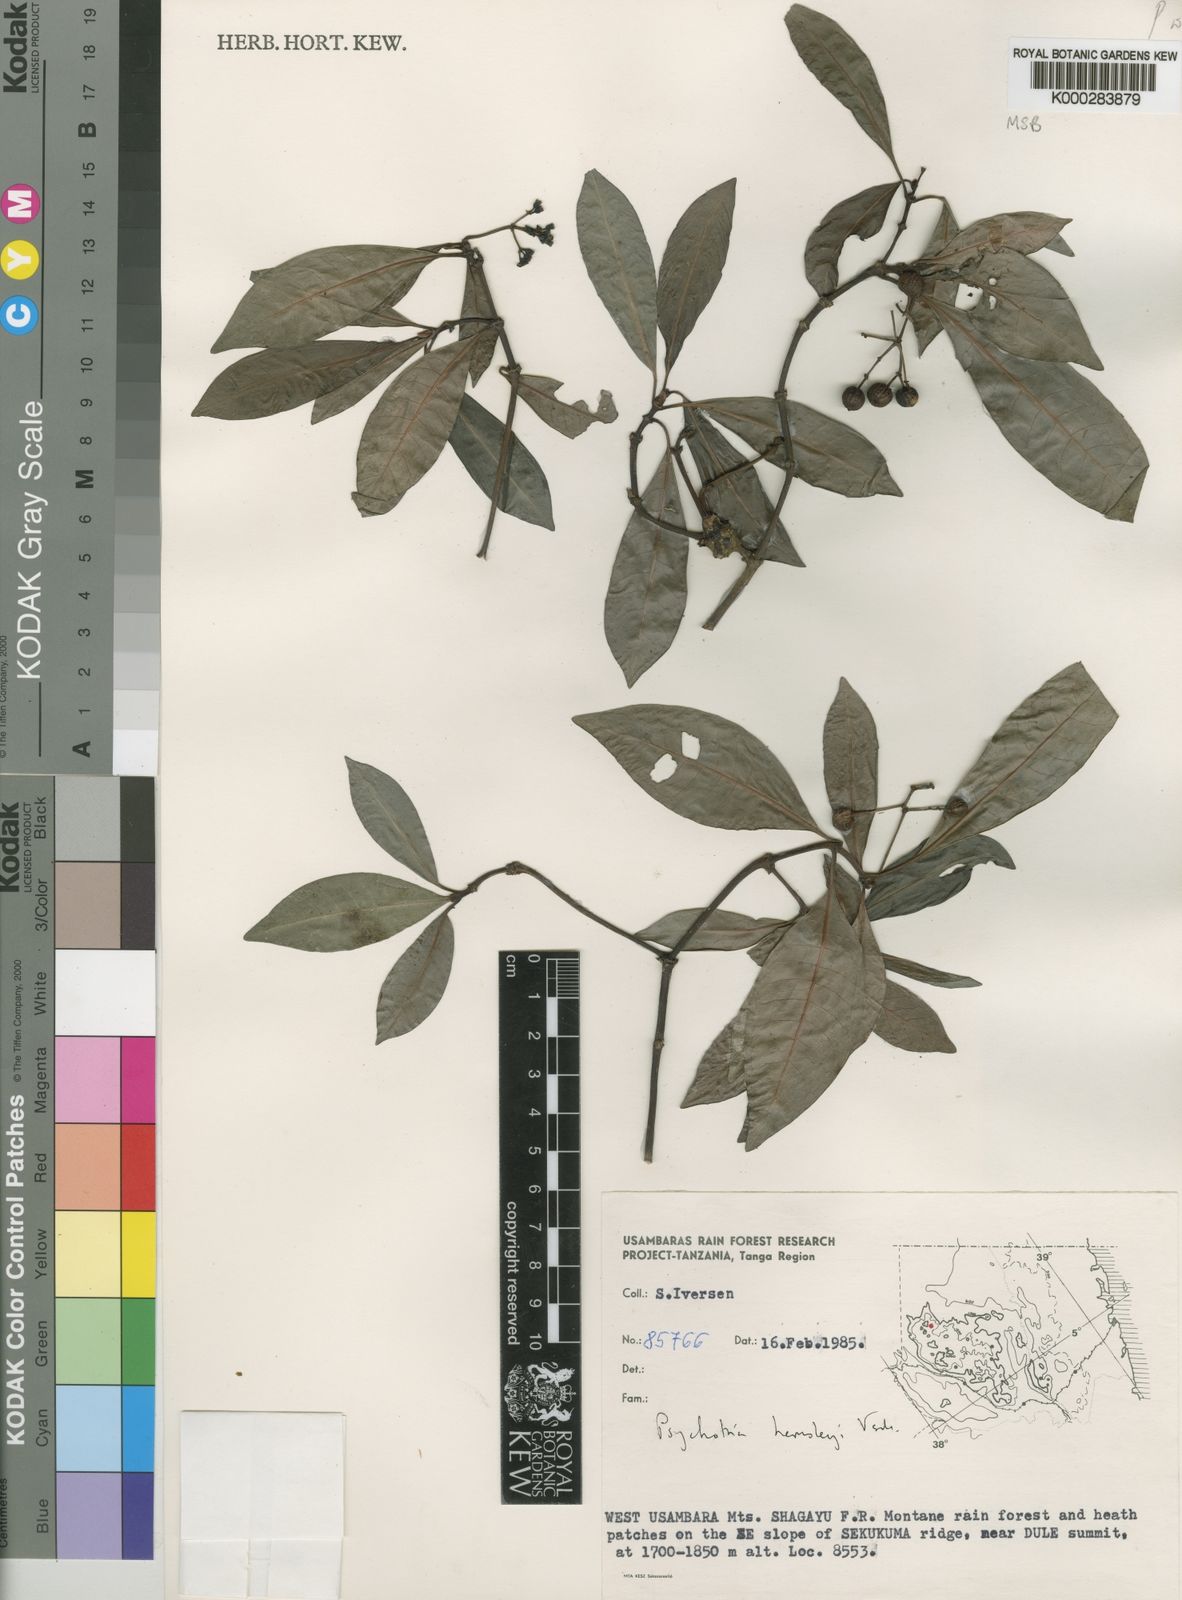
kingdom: Plantae
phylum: Tracheophyta
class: Magnoliopsida
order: Gentianales
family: Rubiaceae
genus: Psychotria
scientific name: Psychotria hemsleyi
